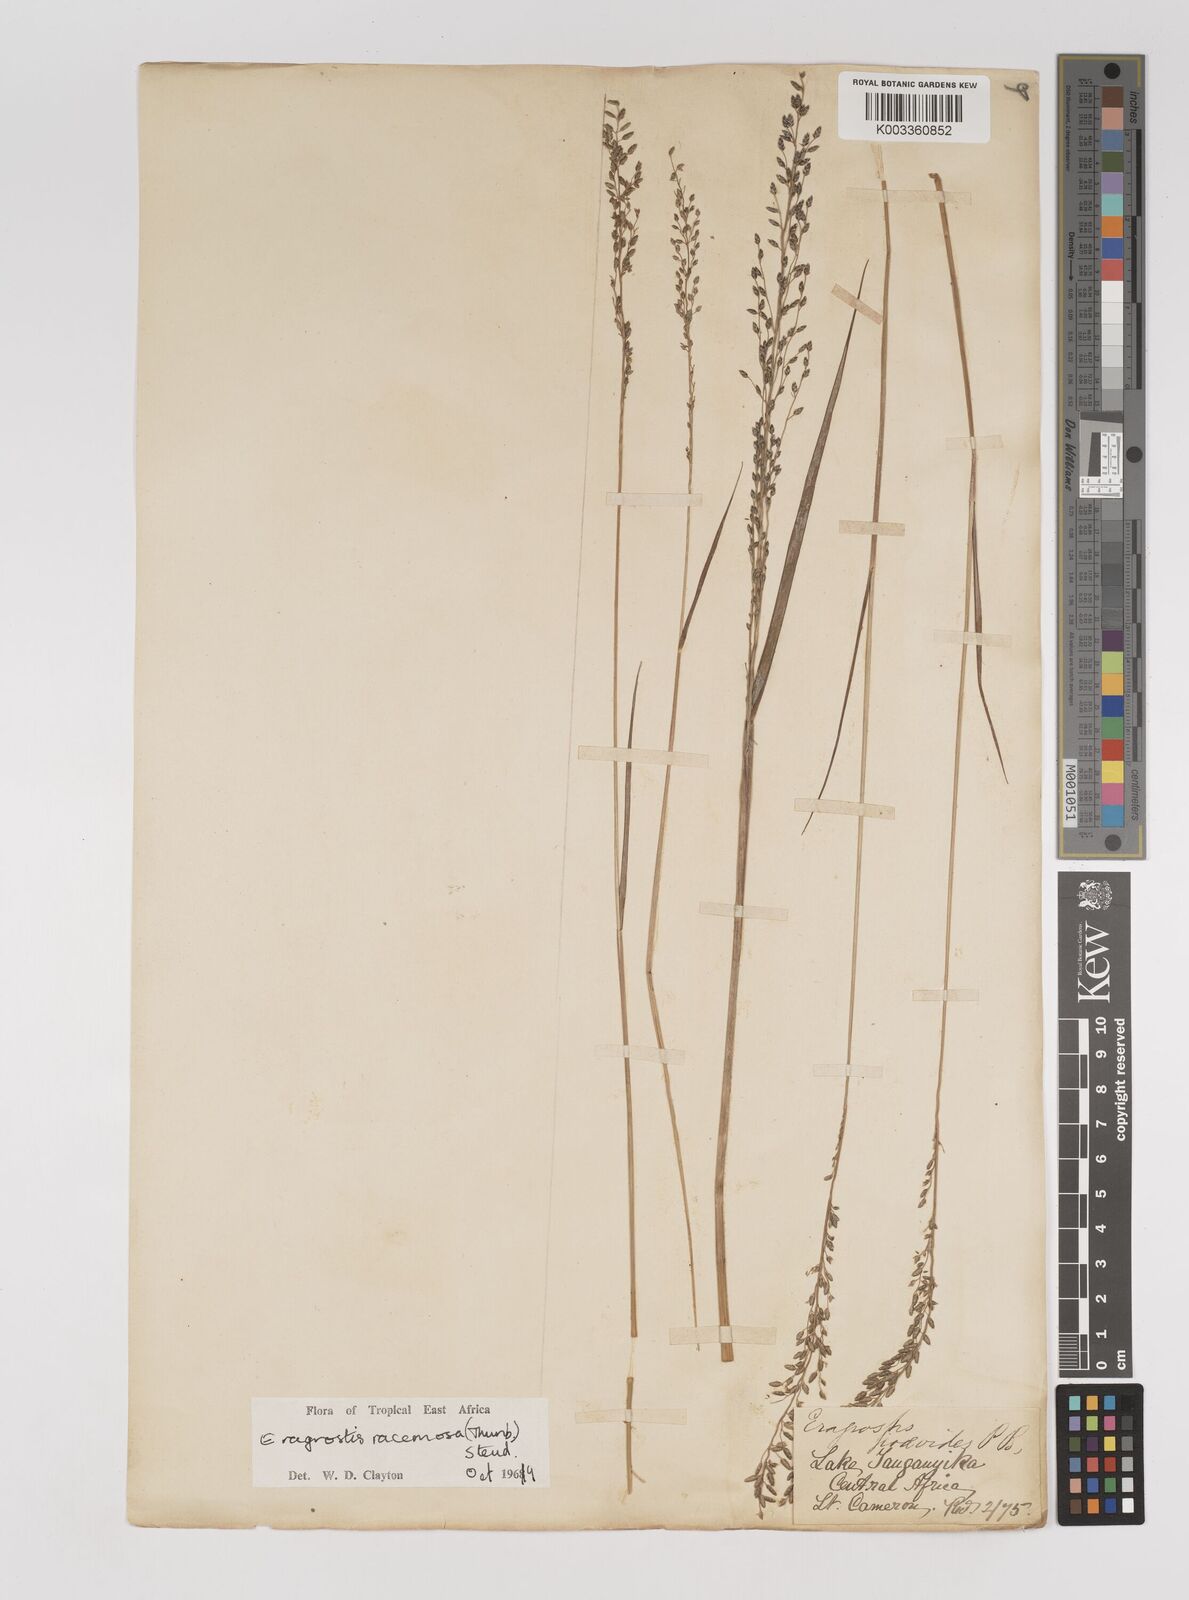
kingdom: Plantae
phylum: Tracheophyta
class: Liliopsida
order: Poales
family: Poaceae
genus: Eragrostis
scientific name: Eragrostis racemosa
